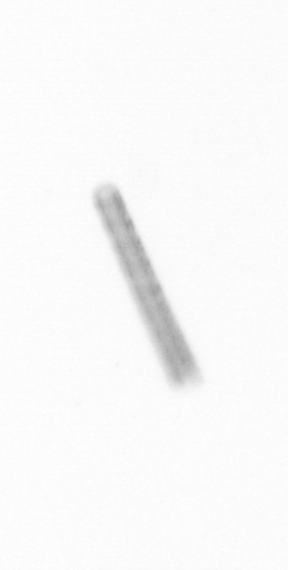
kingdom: Chromista
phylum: Ochrophyta
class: Bacillariophyceae
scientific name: Bacillariophyceae
